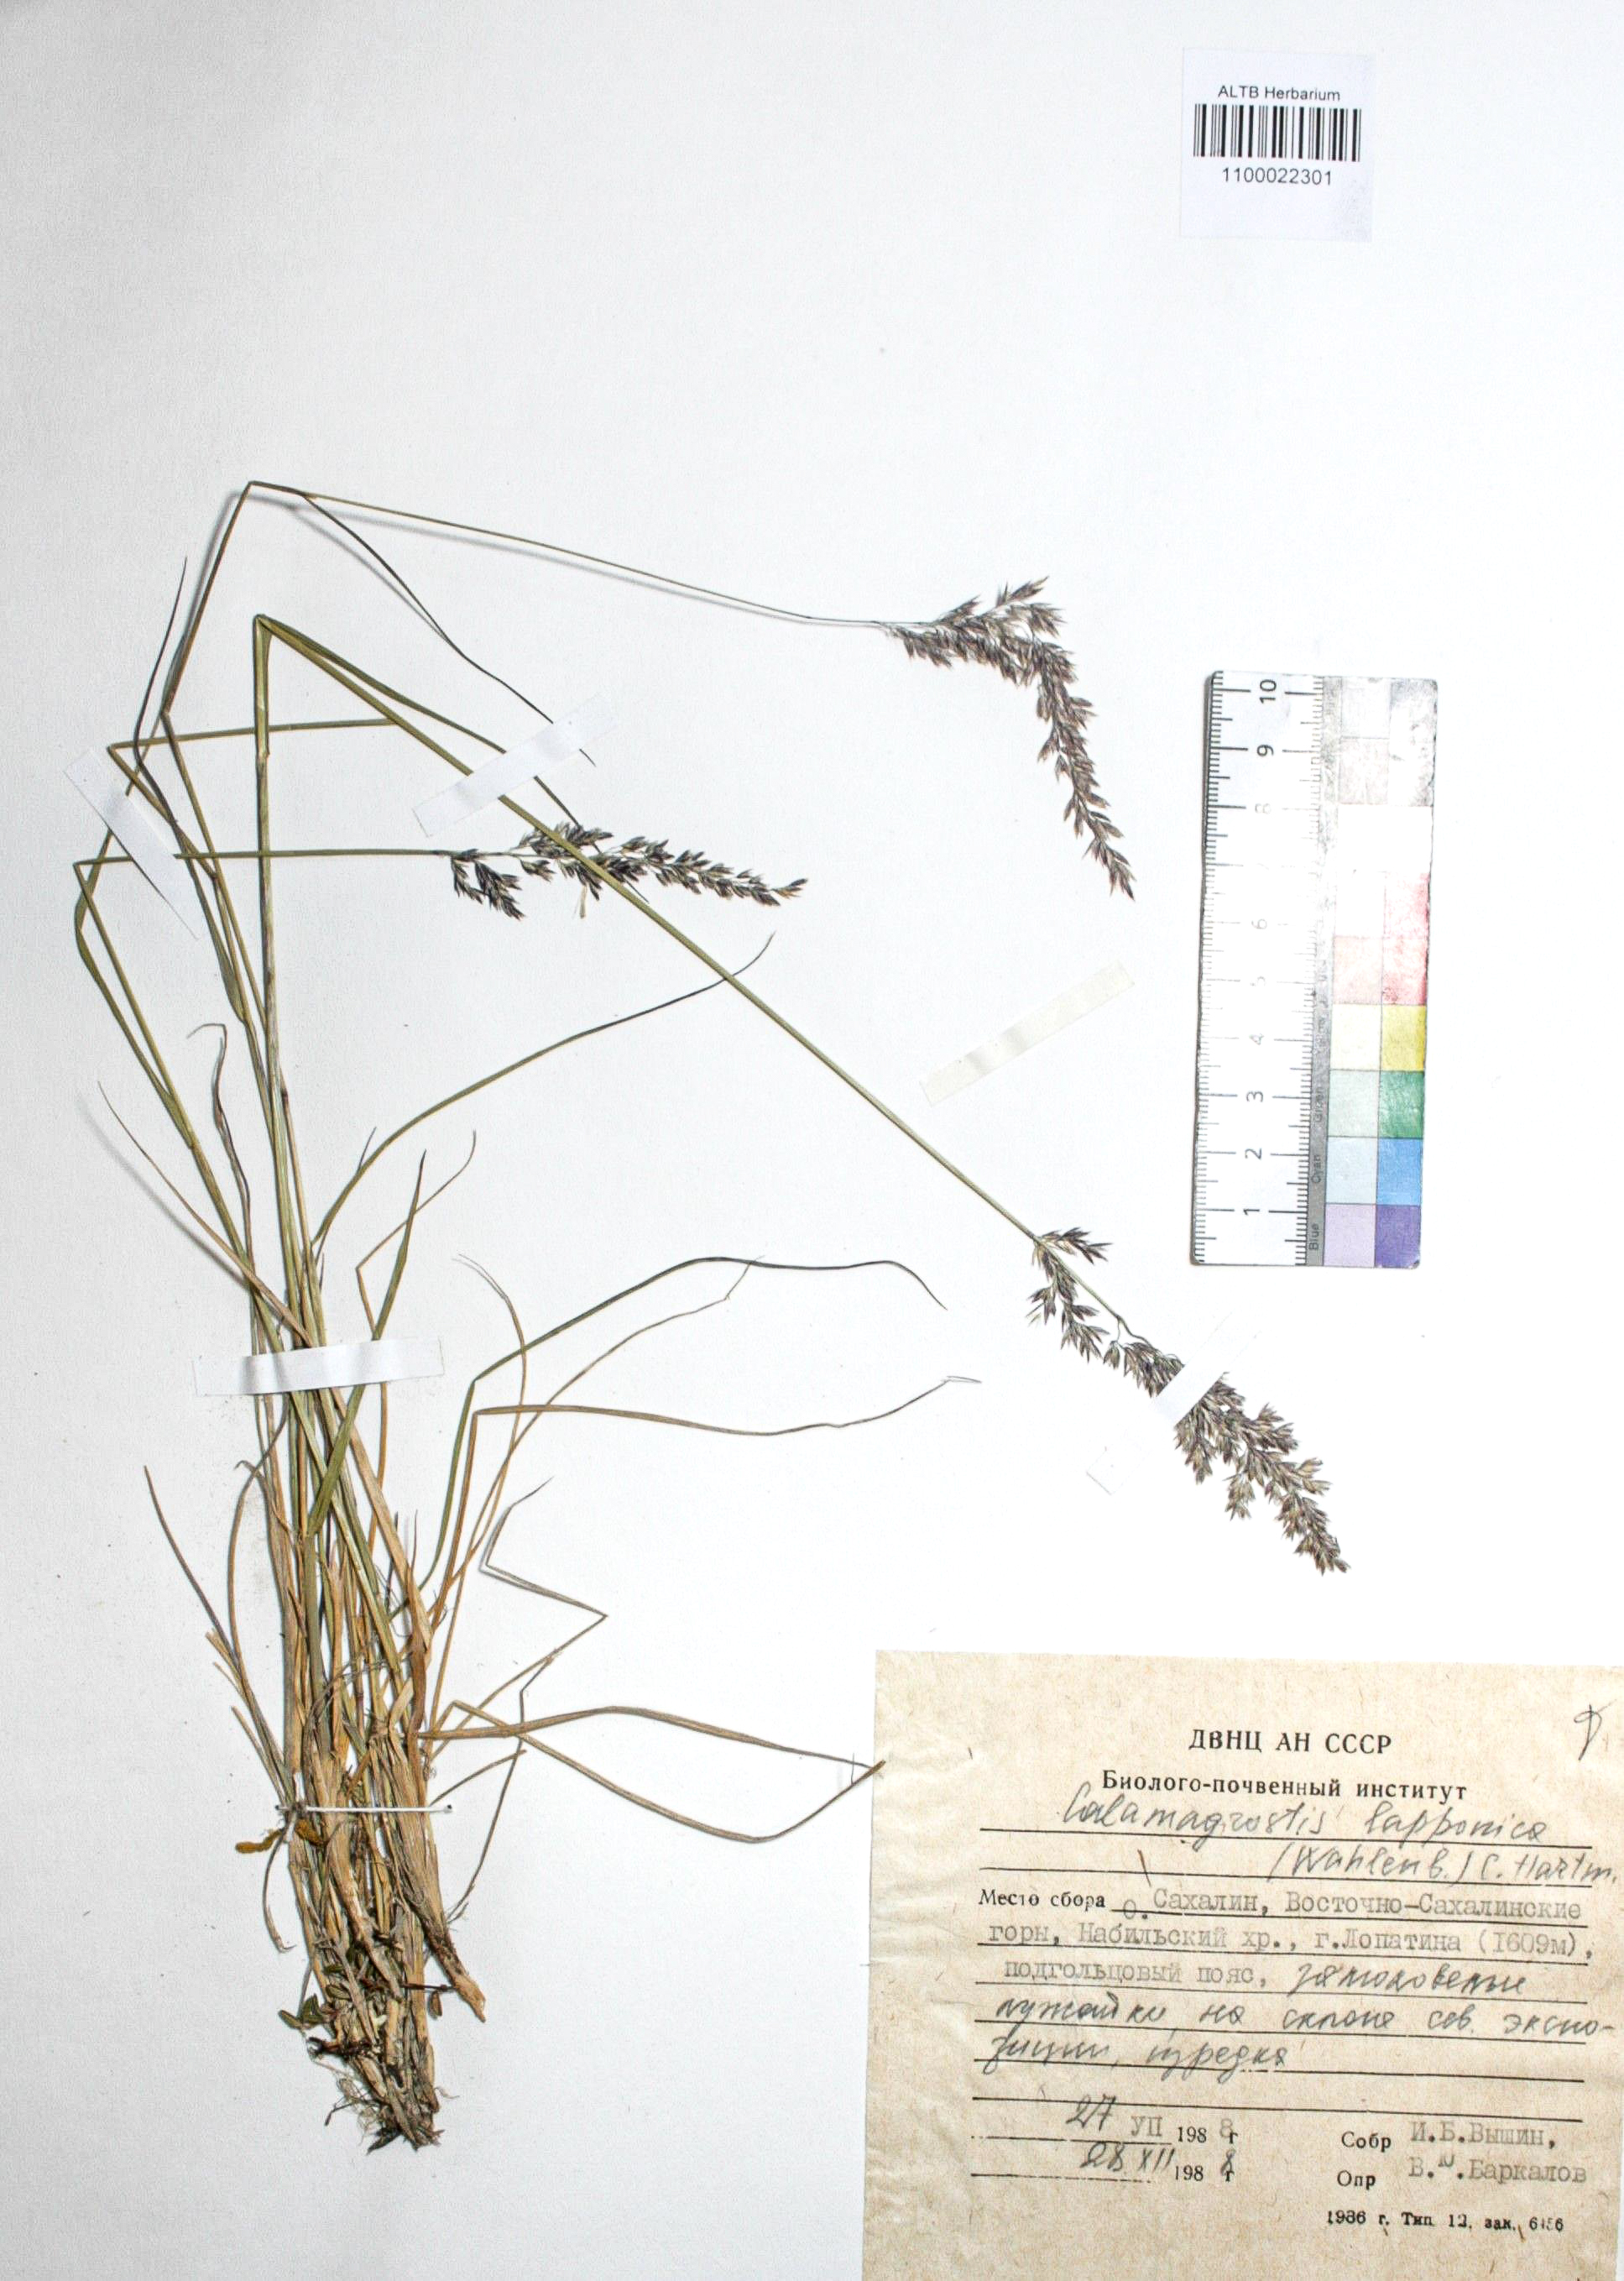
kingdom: Plantae
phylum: Tracheophyta
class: Liliopsida
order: Poales
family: Poaceae
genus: Calamagrostis
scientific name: Calamagrostis lapponica
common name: Lapland reedgrass
